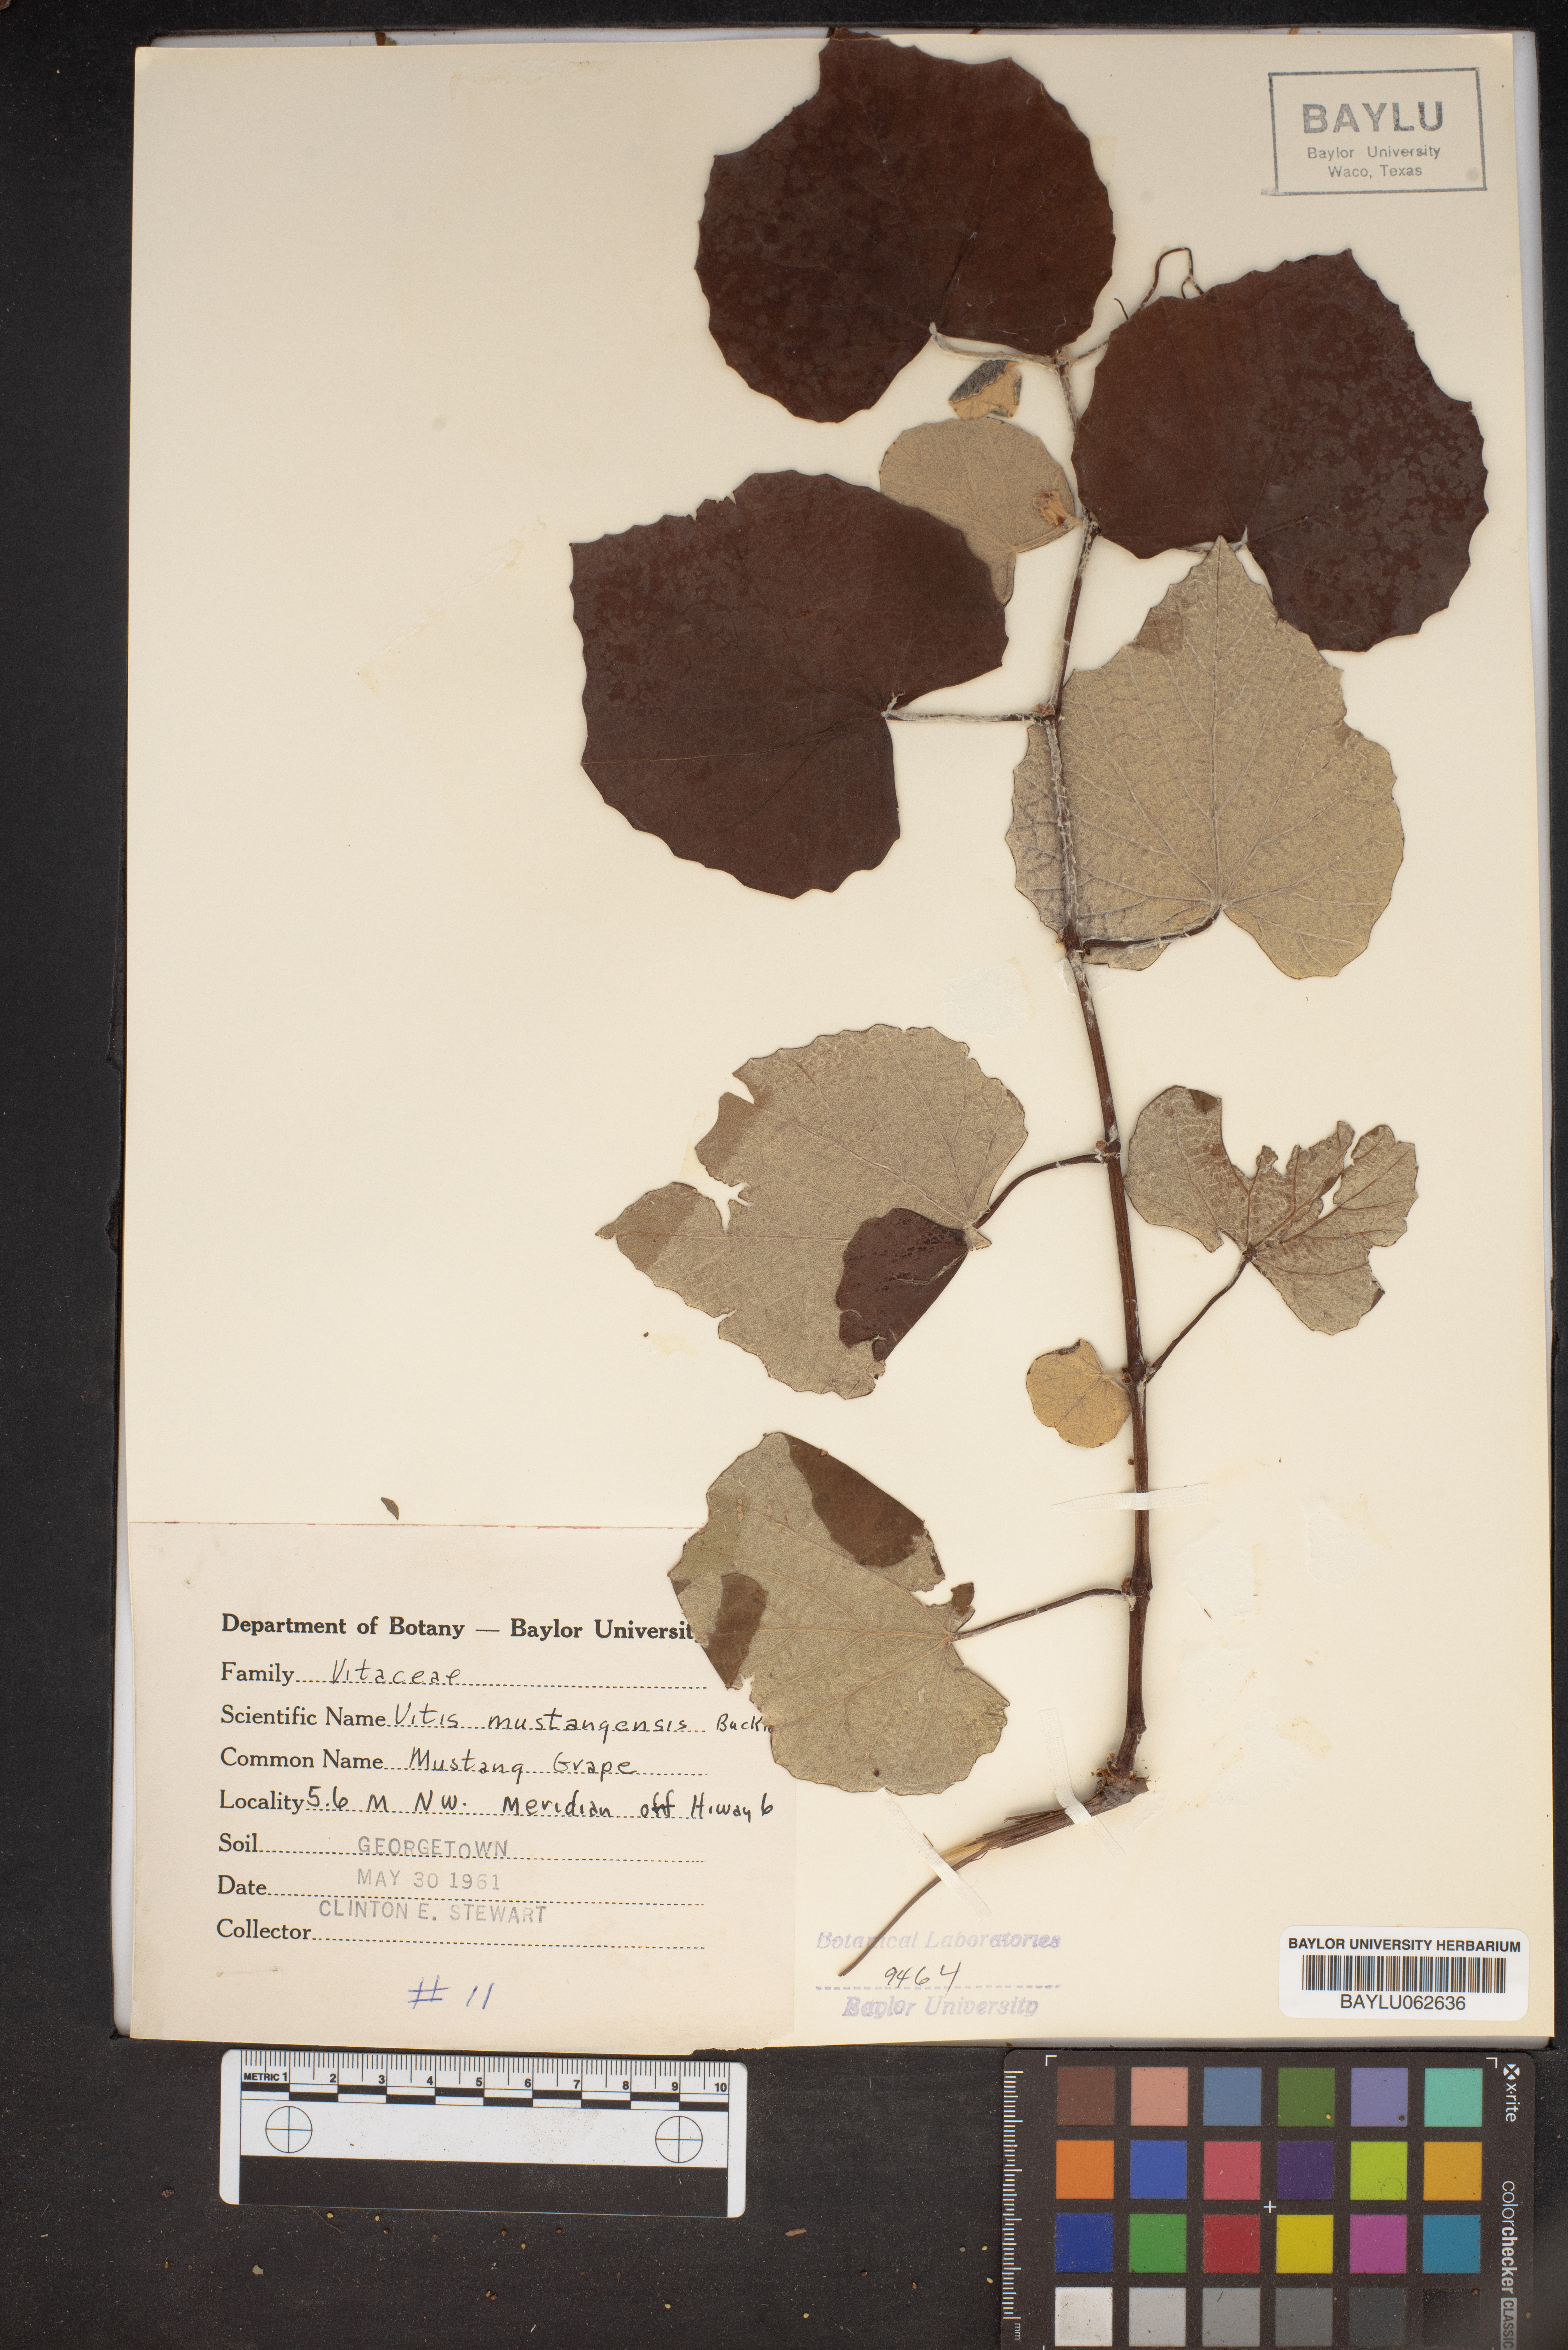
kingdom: Plantae
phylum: Tracheophyta
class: Magnoliopsida
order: Vitales
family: Vitaceae
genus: Vitis
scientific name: Vitis mustangensis
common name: Mustang grape
